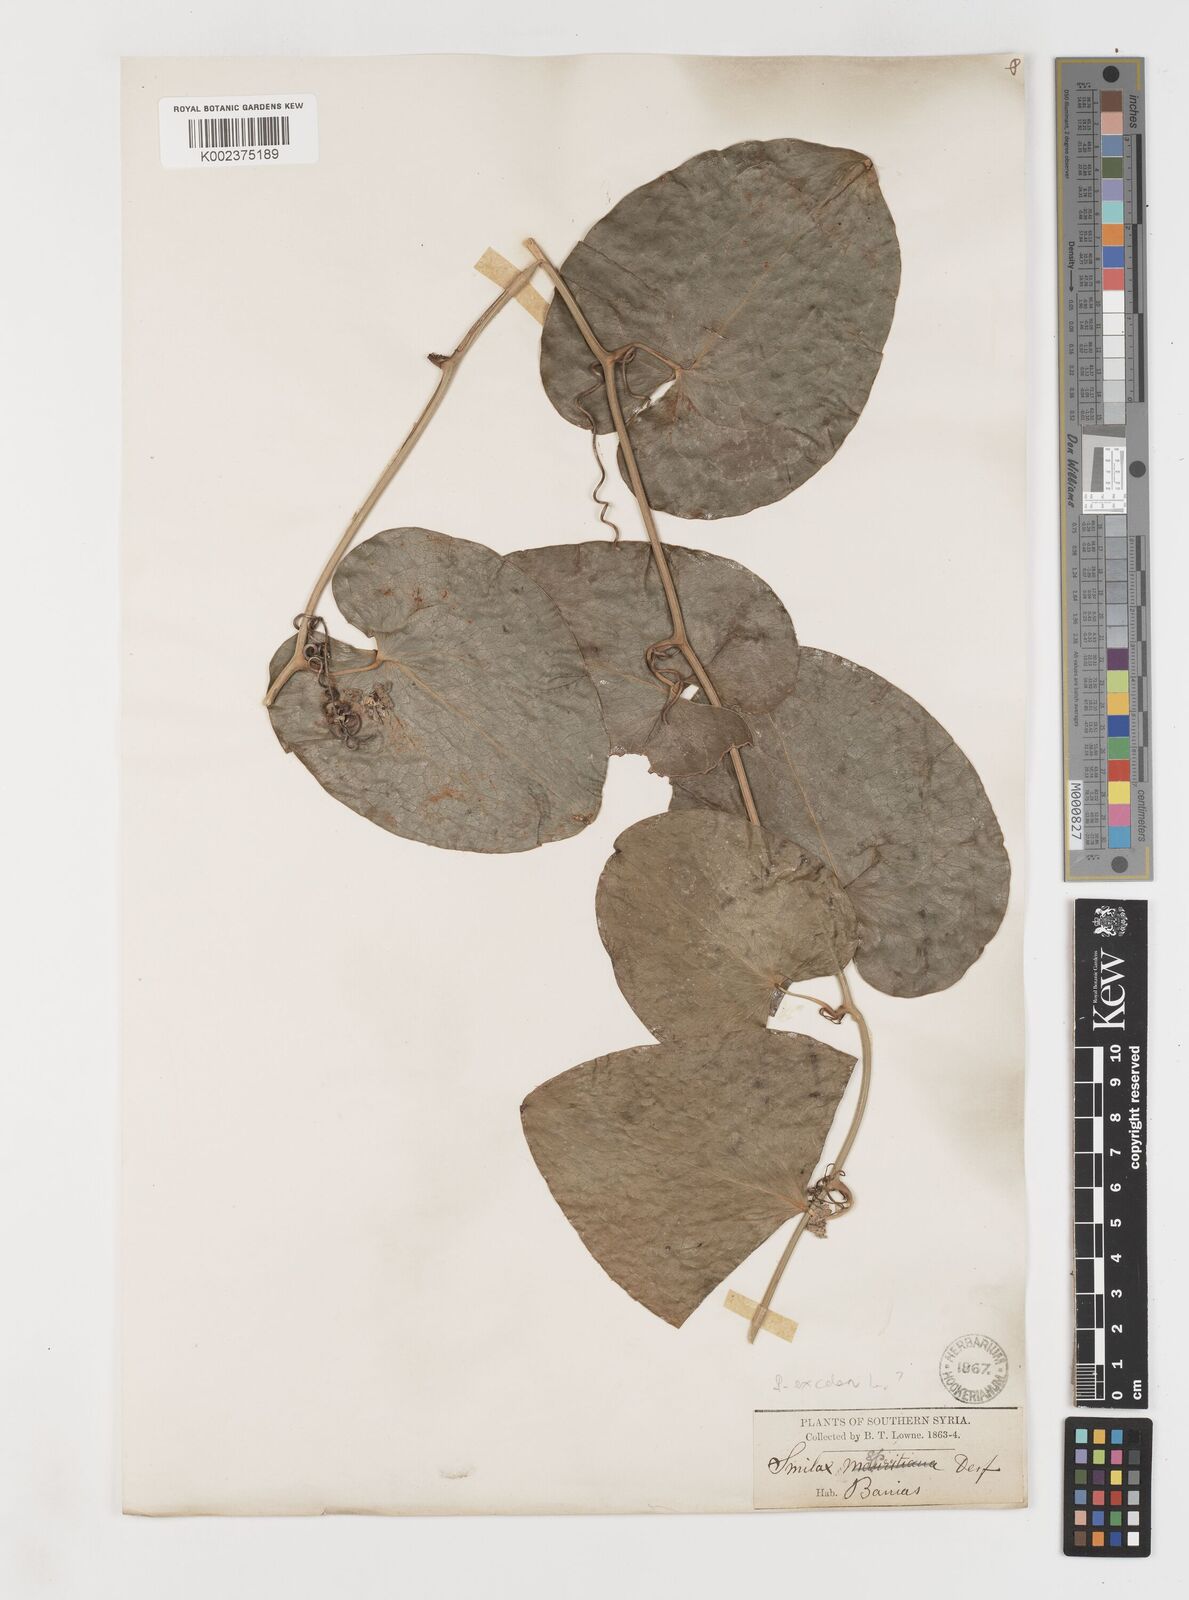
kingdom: Plantae
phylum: Tracheophyta
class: Liliopsida
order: Liliales
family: Smilacaceae
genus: Smilax
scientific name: Smilax
